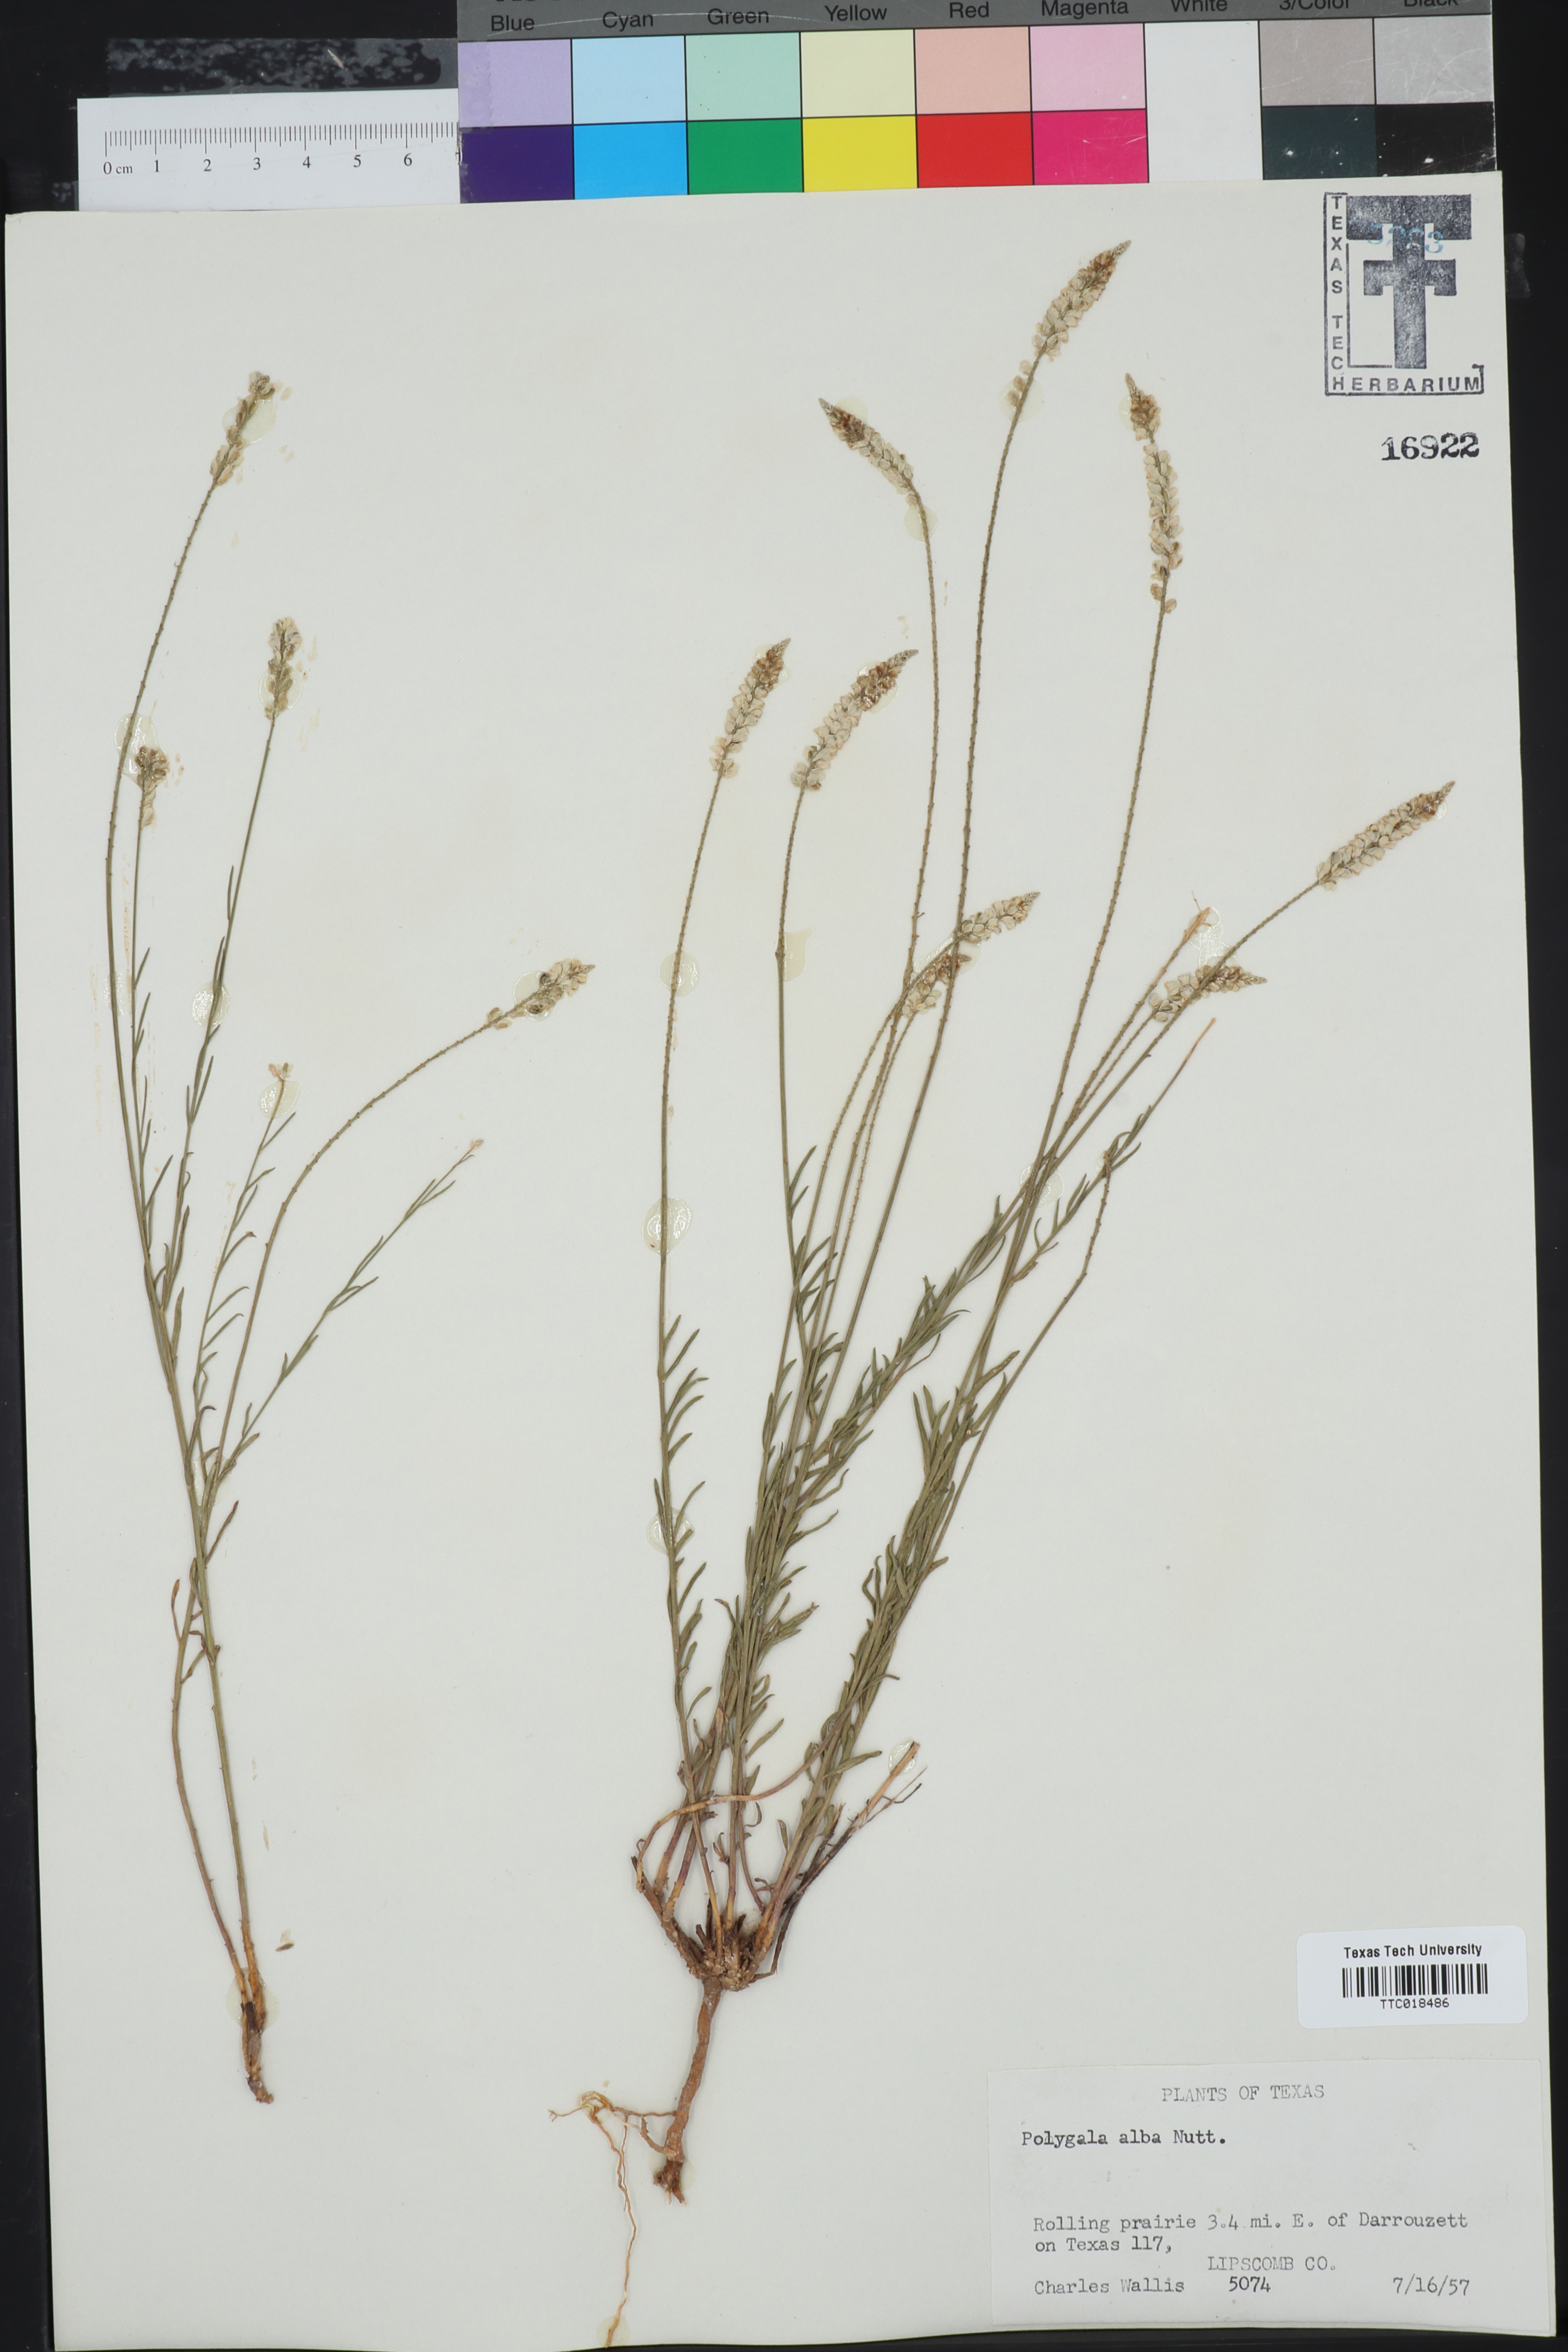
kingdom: Plantae
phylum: Tracheophyta
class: Magnoliopsida
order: Fabales
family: Polygalaceae
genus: Polygala
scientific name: Polygala alba
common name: White milkwort
